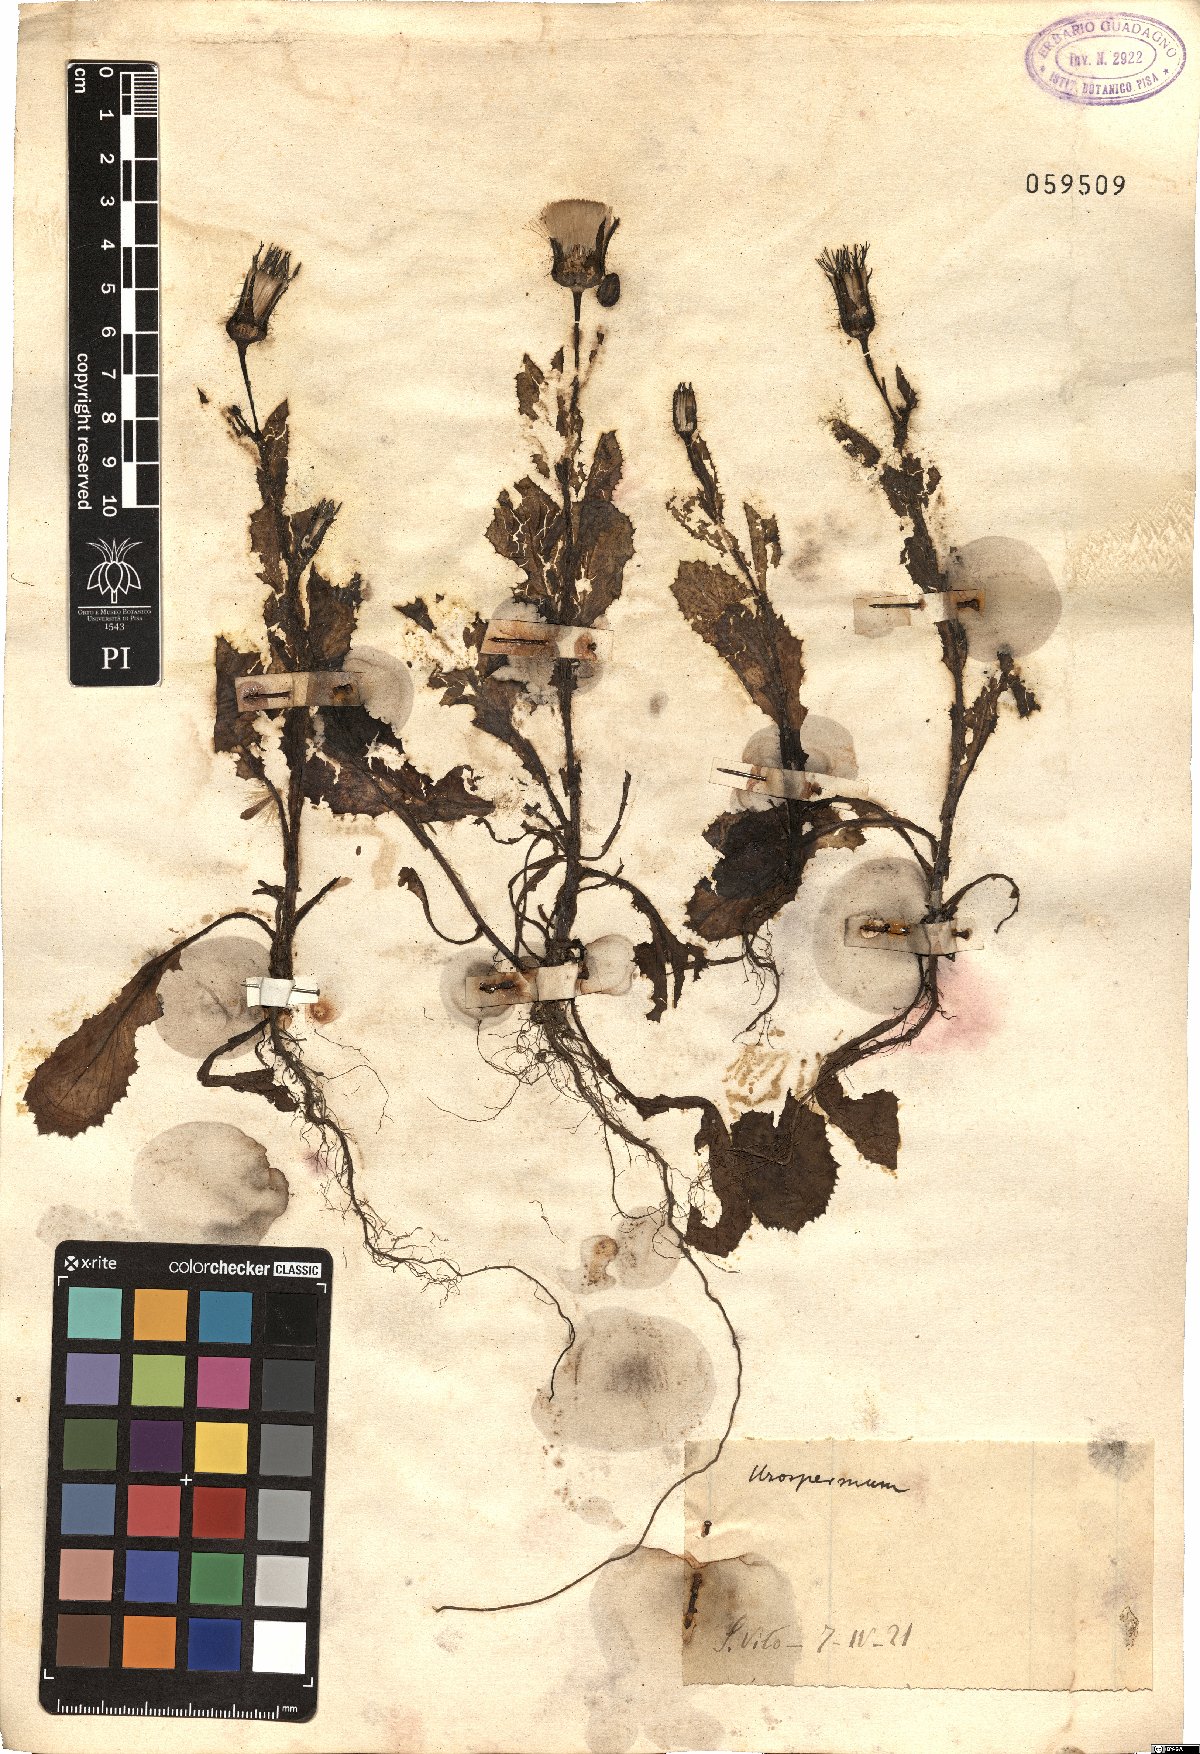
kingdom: Plantae
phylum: Tracheophyta
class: Magnoliopsida
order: Asterales
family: Asteraceae
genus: Urospermum
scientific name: Urospermum
